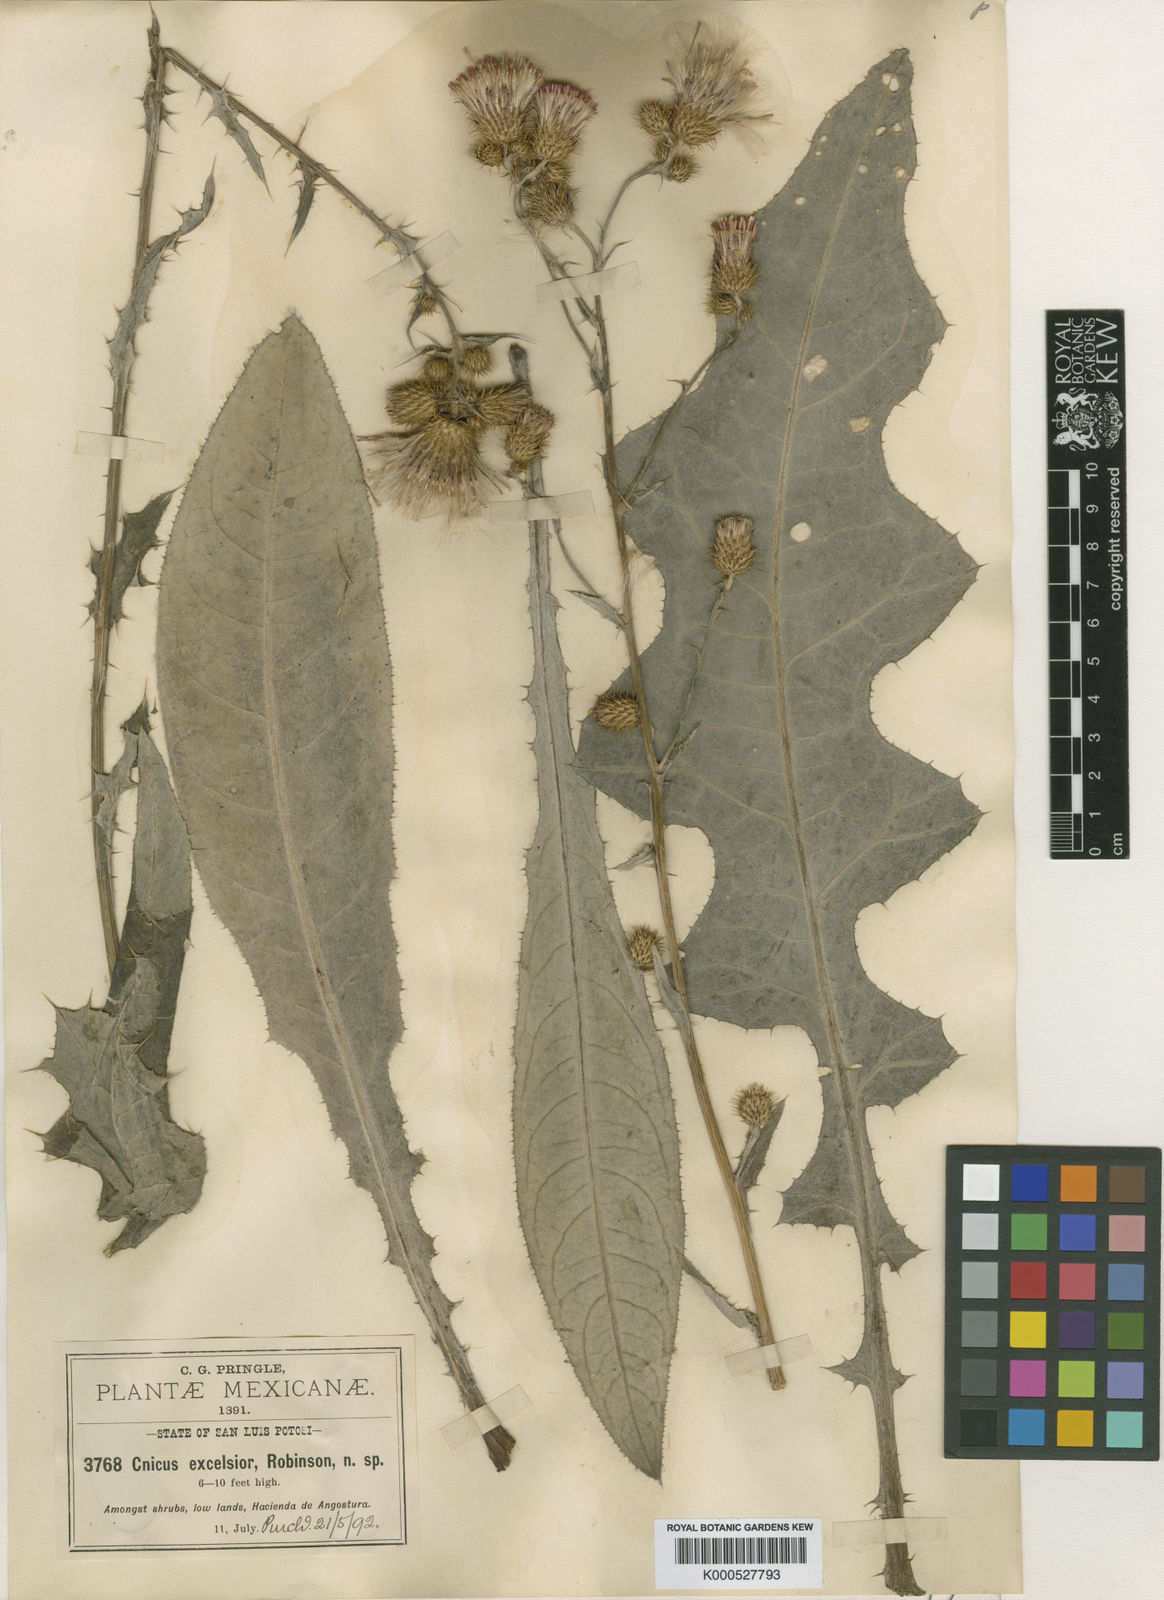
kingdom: Plantae
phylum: Tracheophyta
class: Magnoliopsida
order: Asterales
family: Asteraceae
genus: Cirsium
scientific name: Cirsium excelsius
